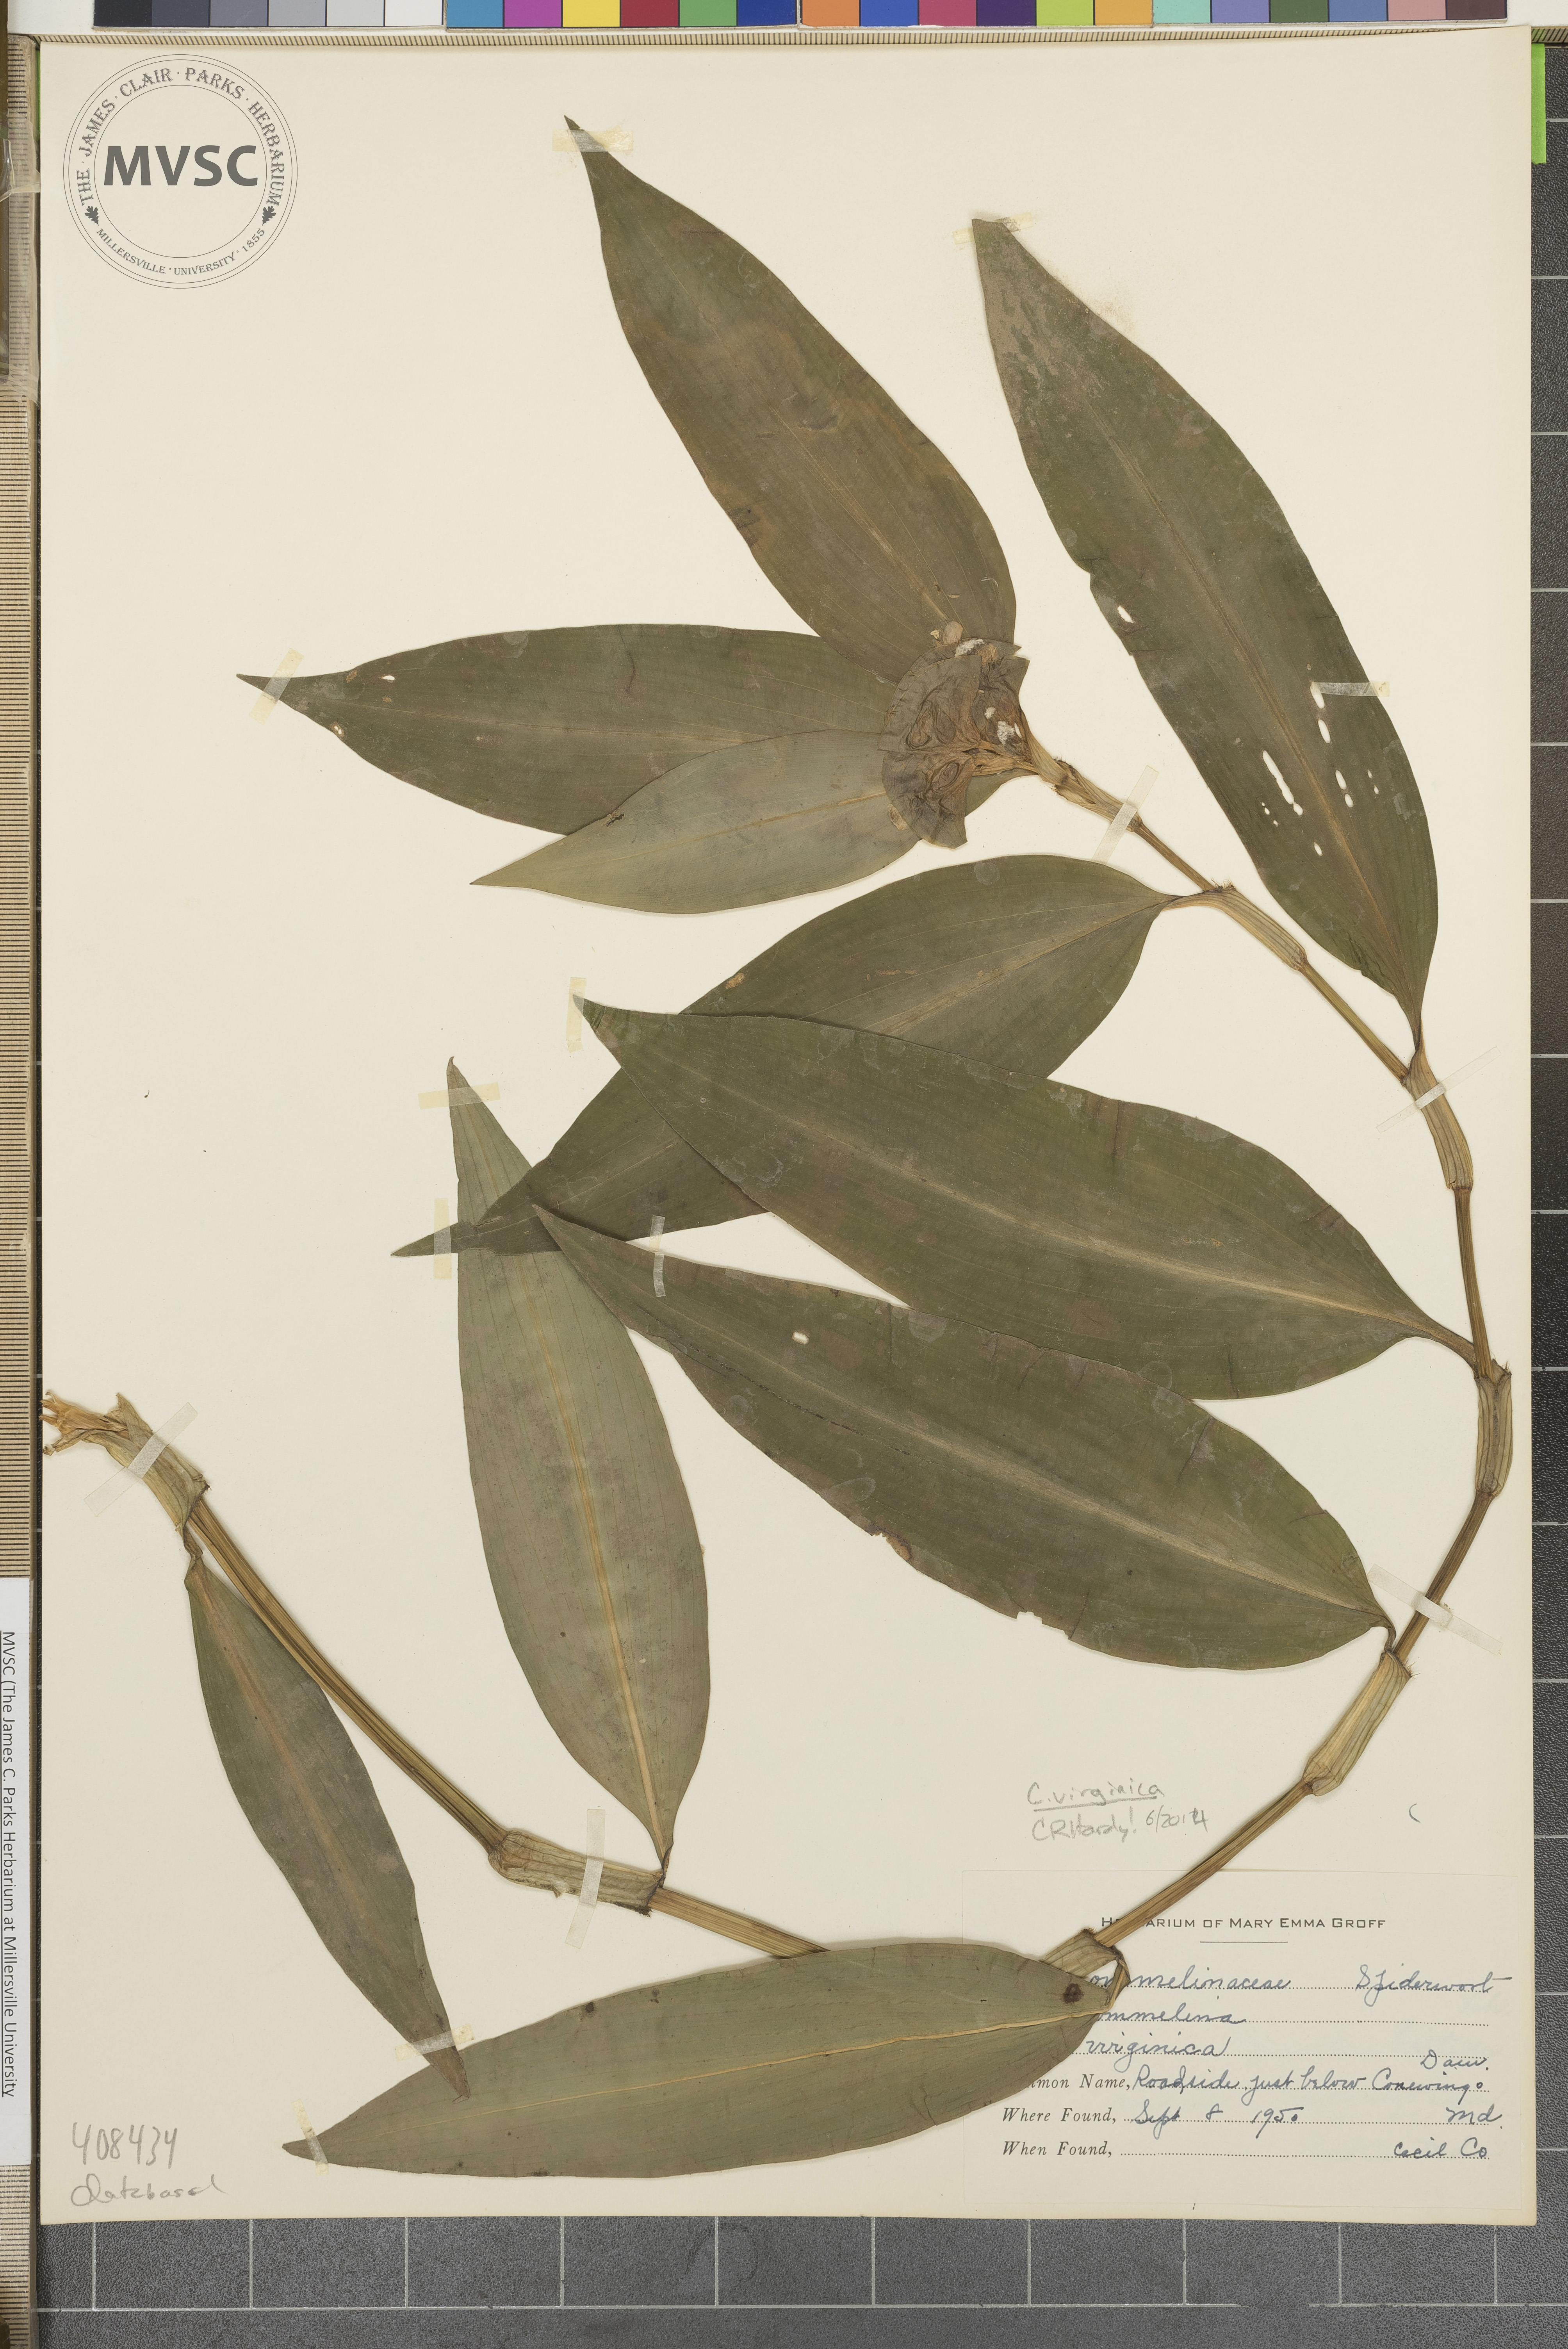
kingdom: Plantae
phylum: Tracheophyta
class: Liliopsida
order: Commelinales
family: Commelinaceae
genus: Commelina
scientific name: Commelina virginica
